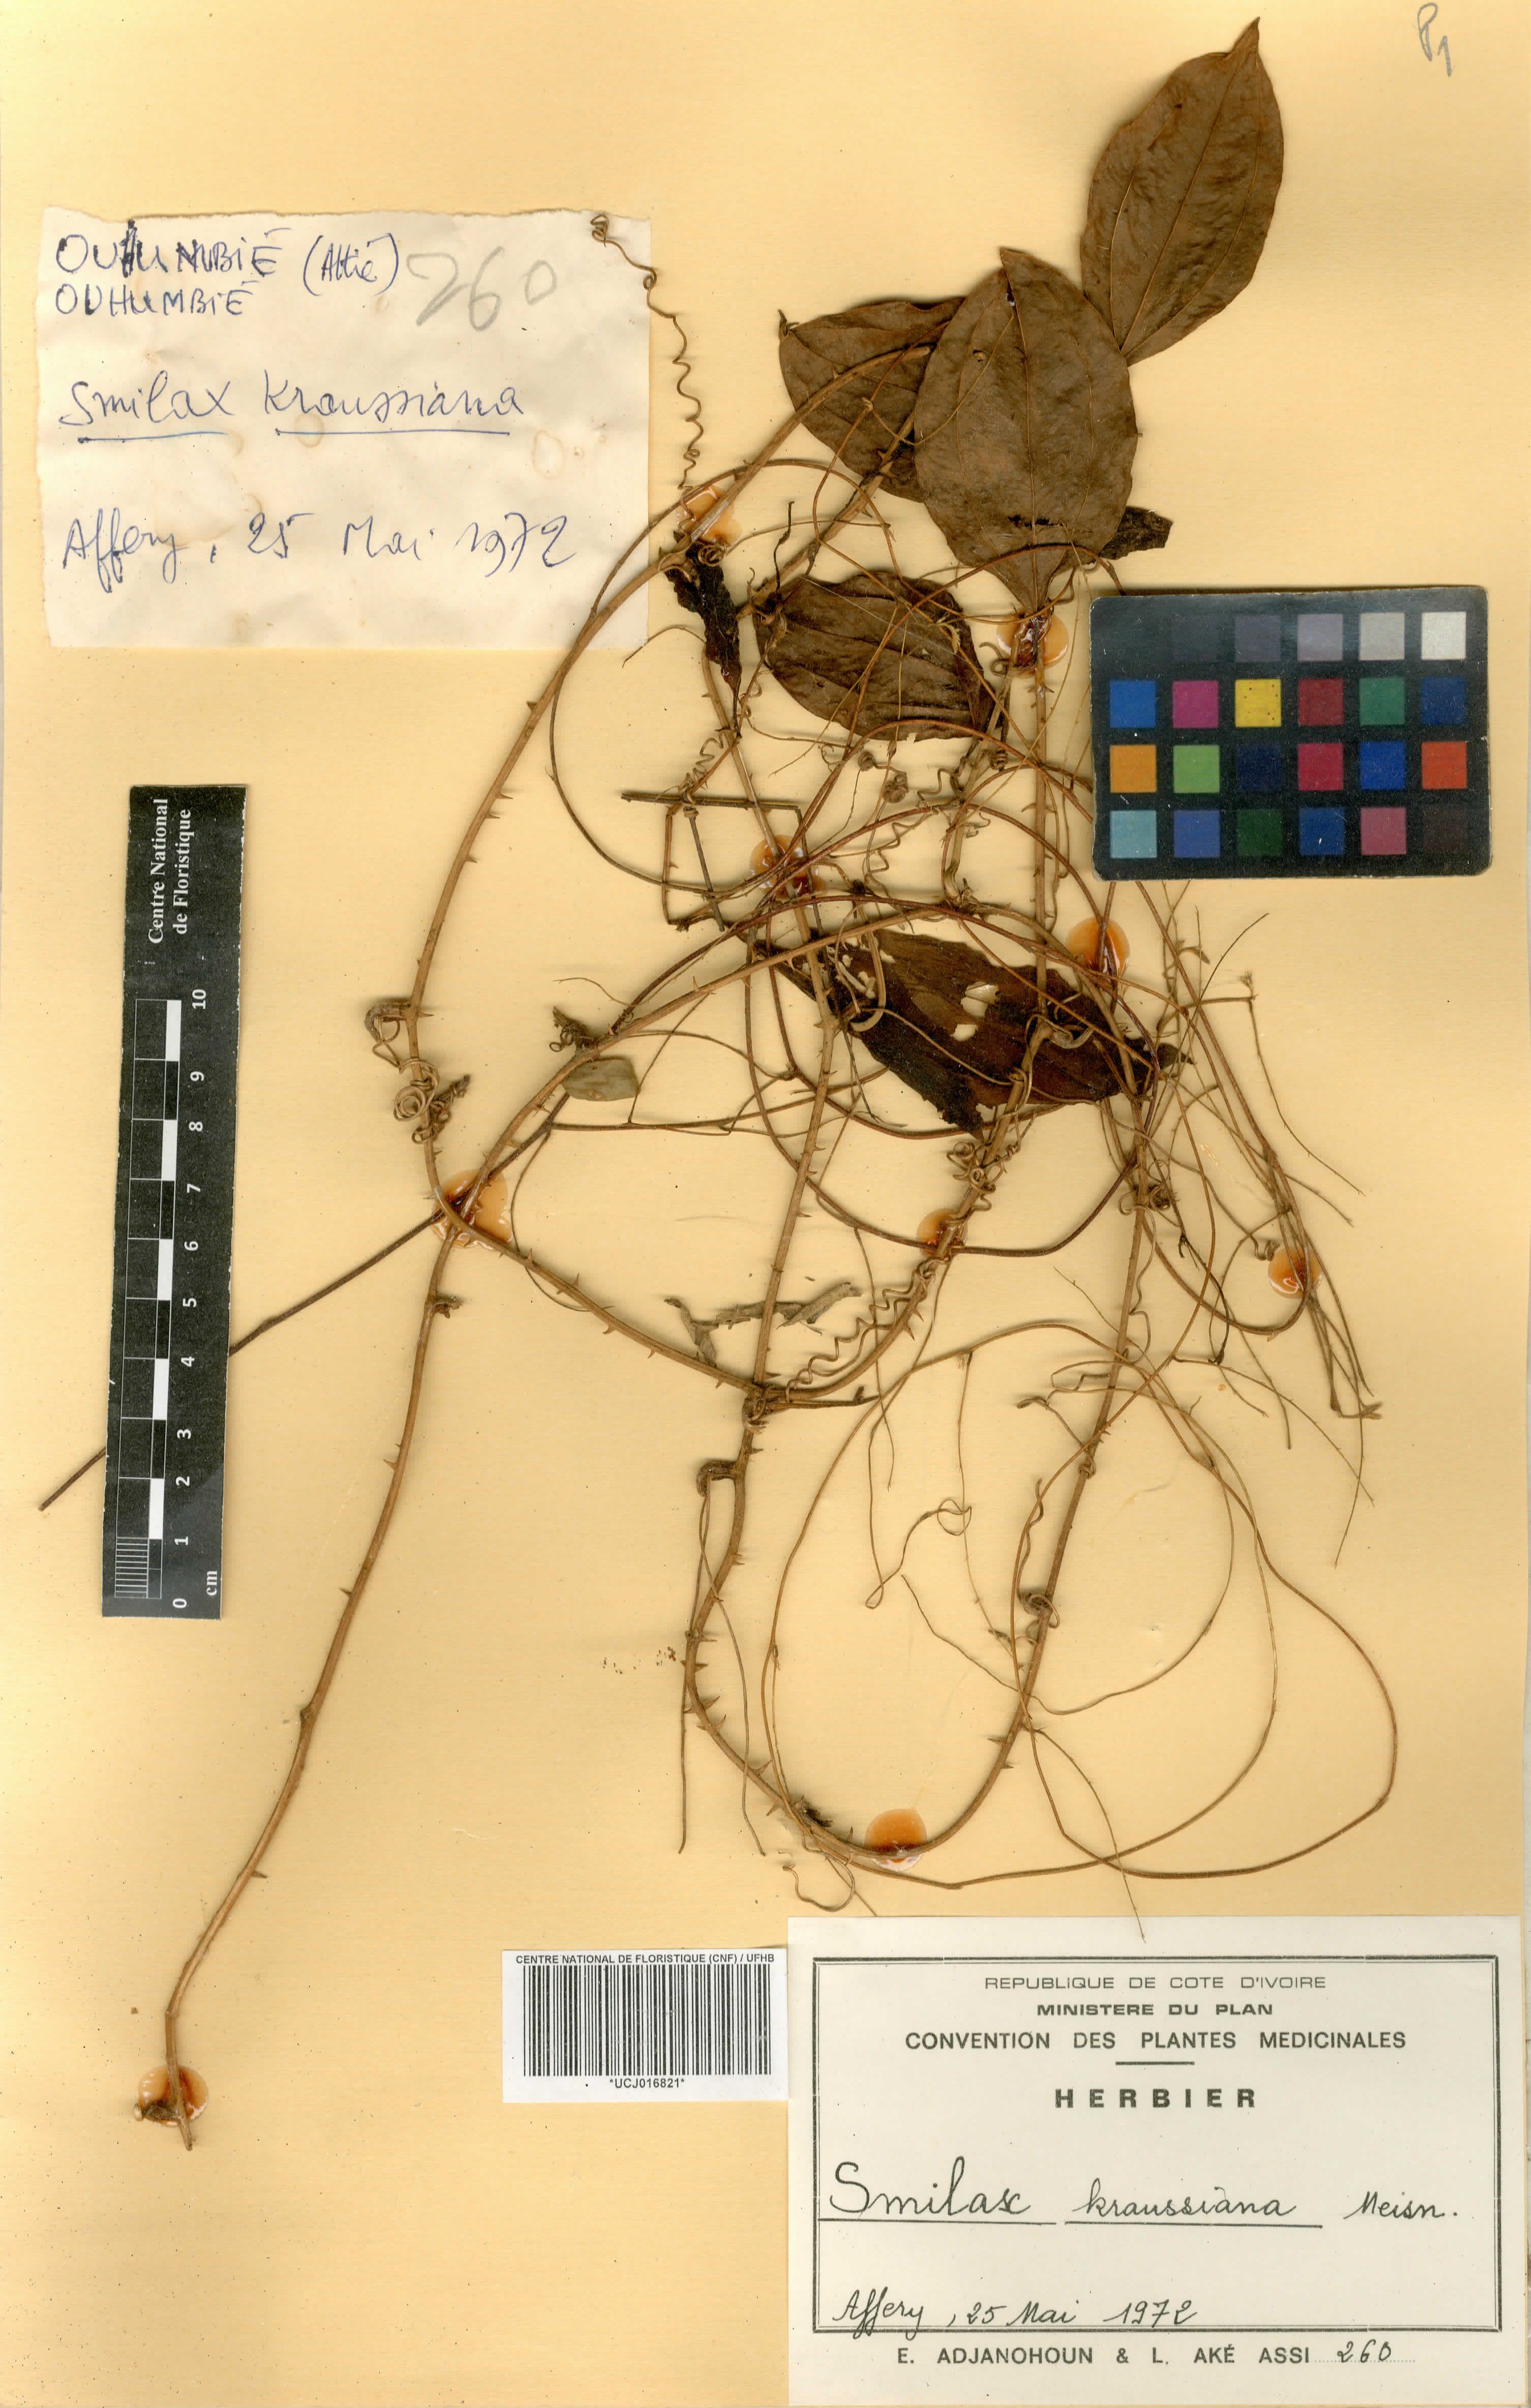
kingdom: Plantae
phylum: Tracheophyta
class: Liliopsida
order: Liliales
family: Smilacaceae
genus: Smilax
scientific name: Smilax anceps
